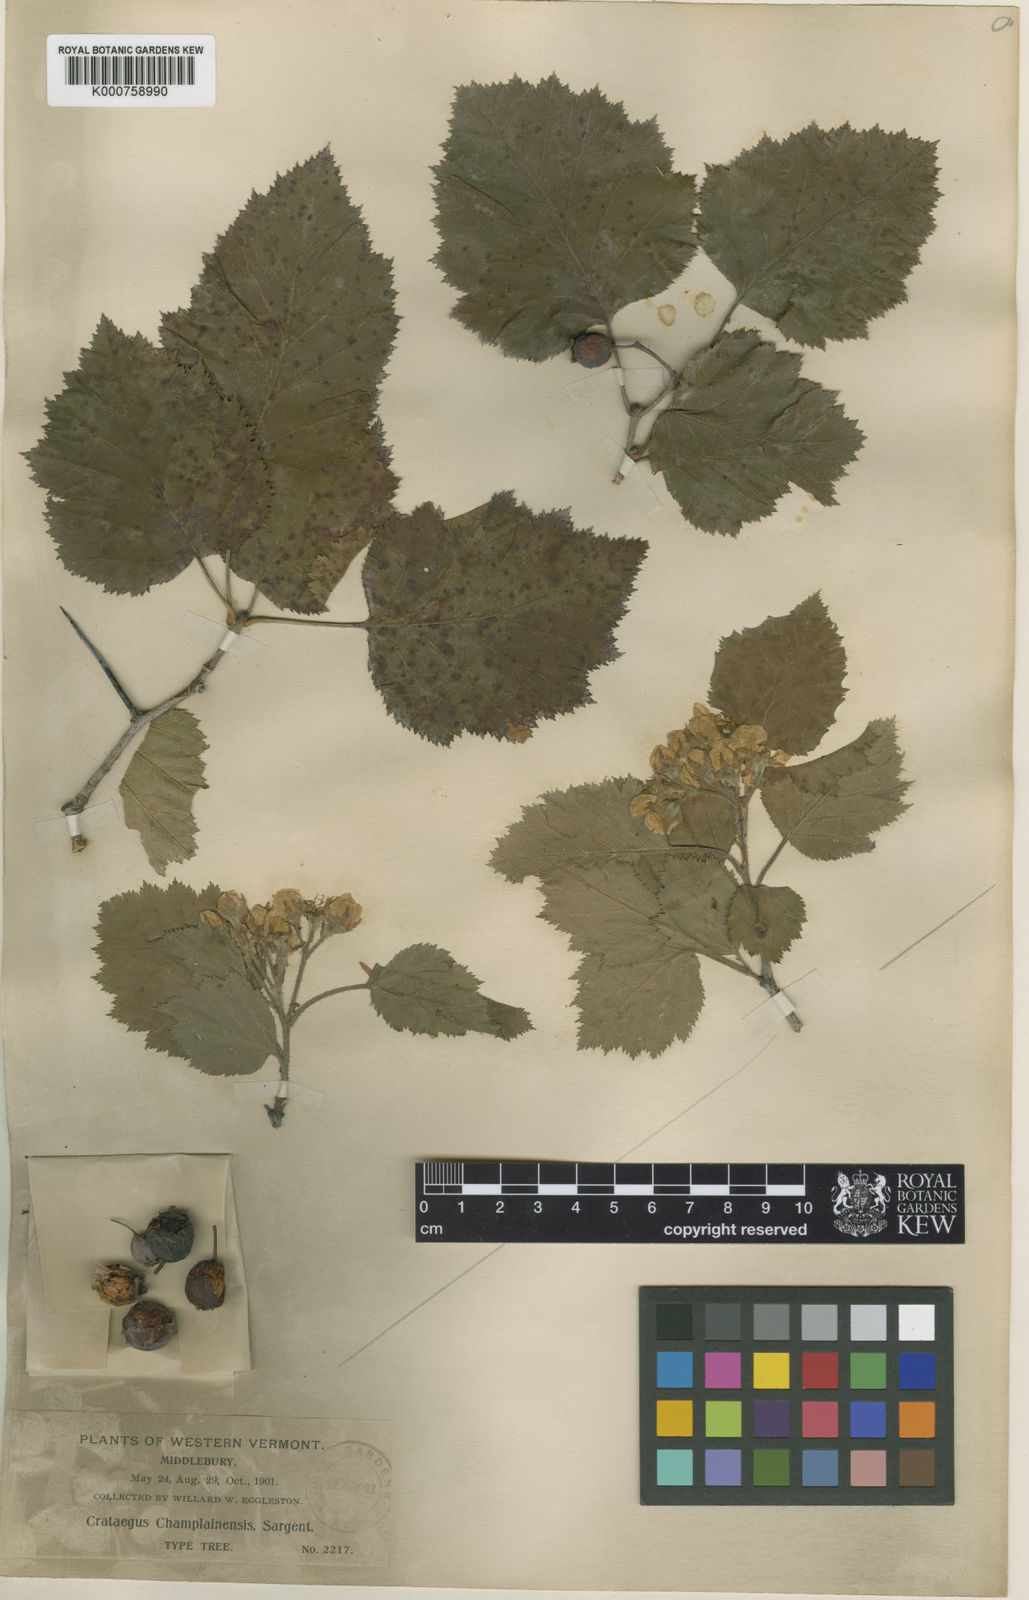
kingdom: Plantae
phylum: Tracheophyta
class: Magnoliopsida
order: Rosales
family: Rosaceae
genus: Crataegus
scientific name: Crataegus submollis
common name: Hairy cockspurthorn
